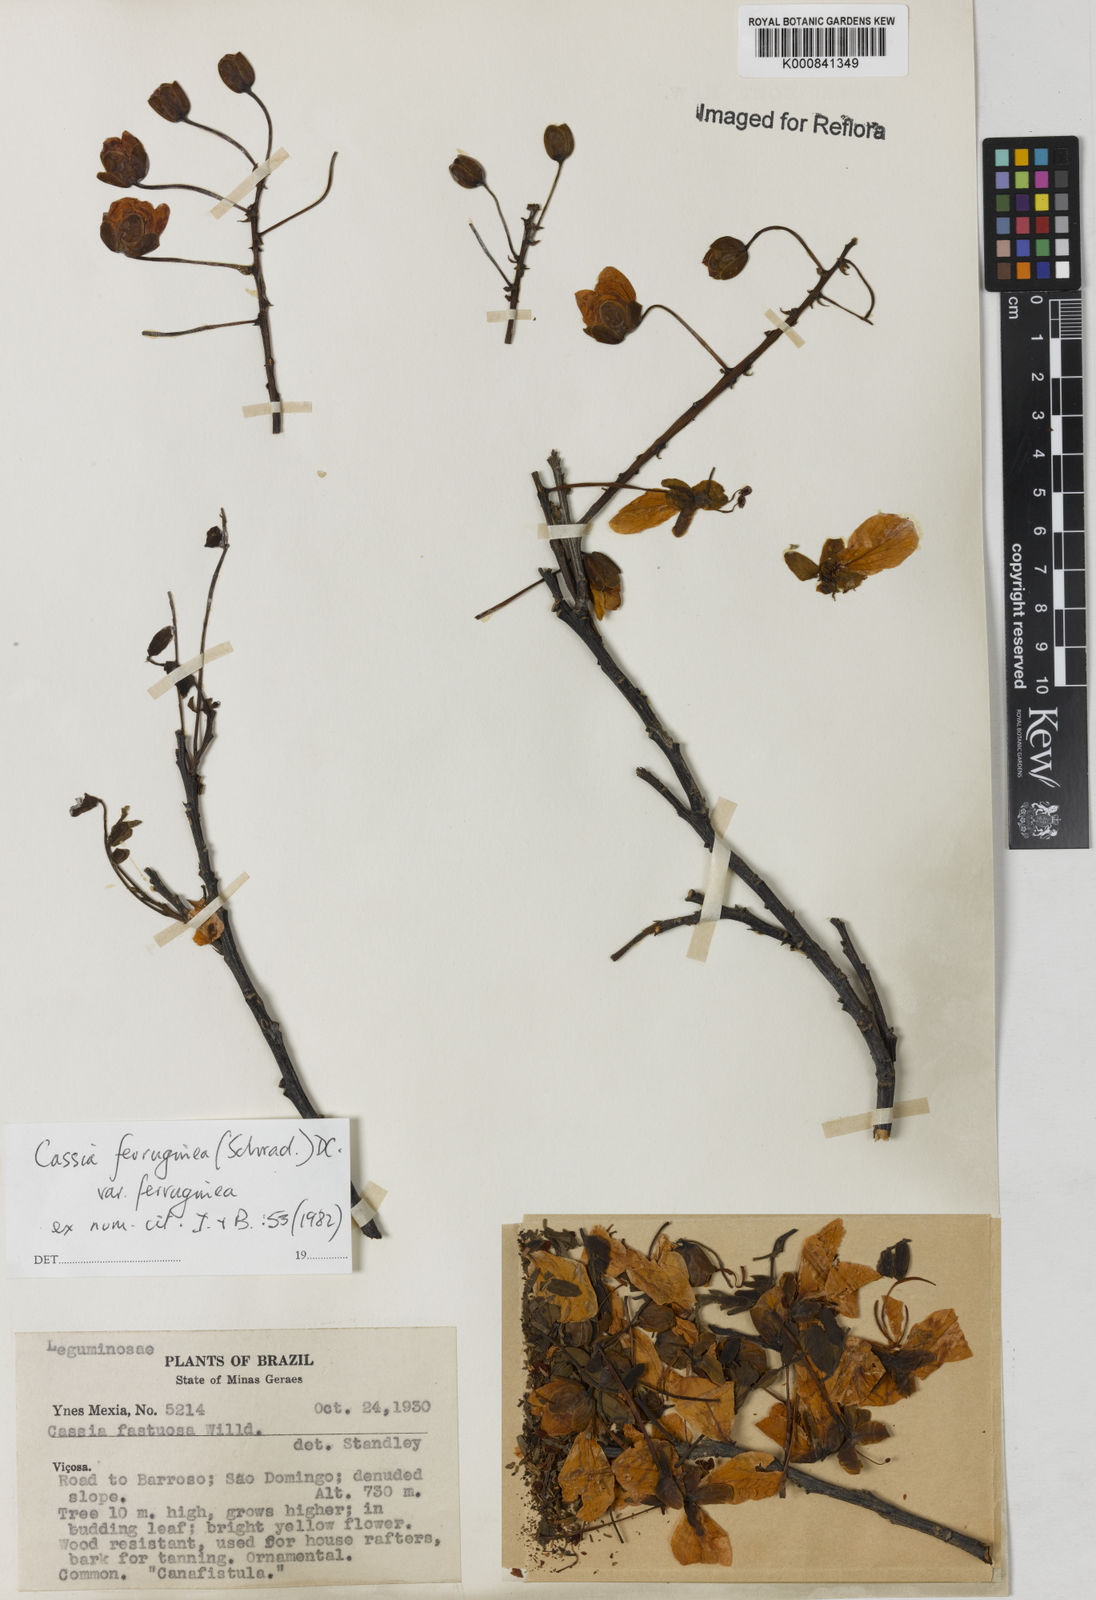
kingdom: Plantae
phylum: Tracheophyta
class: Magnoliopsida
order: Fabales
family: Fabaceae
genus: Cassia
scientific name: Cassia ferruginea
